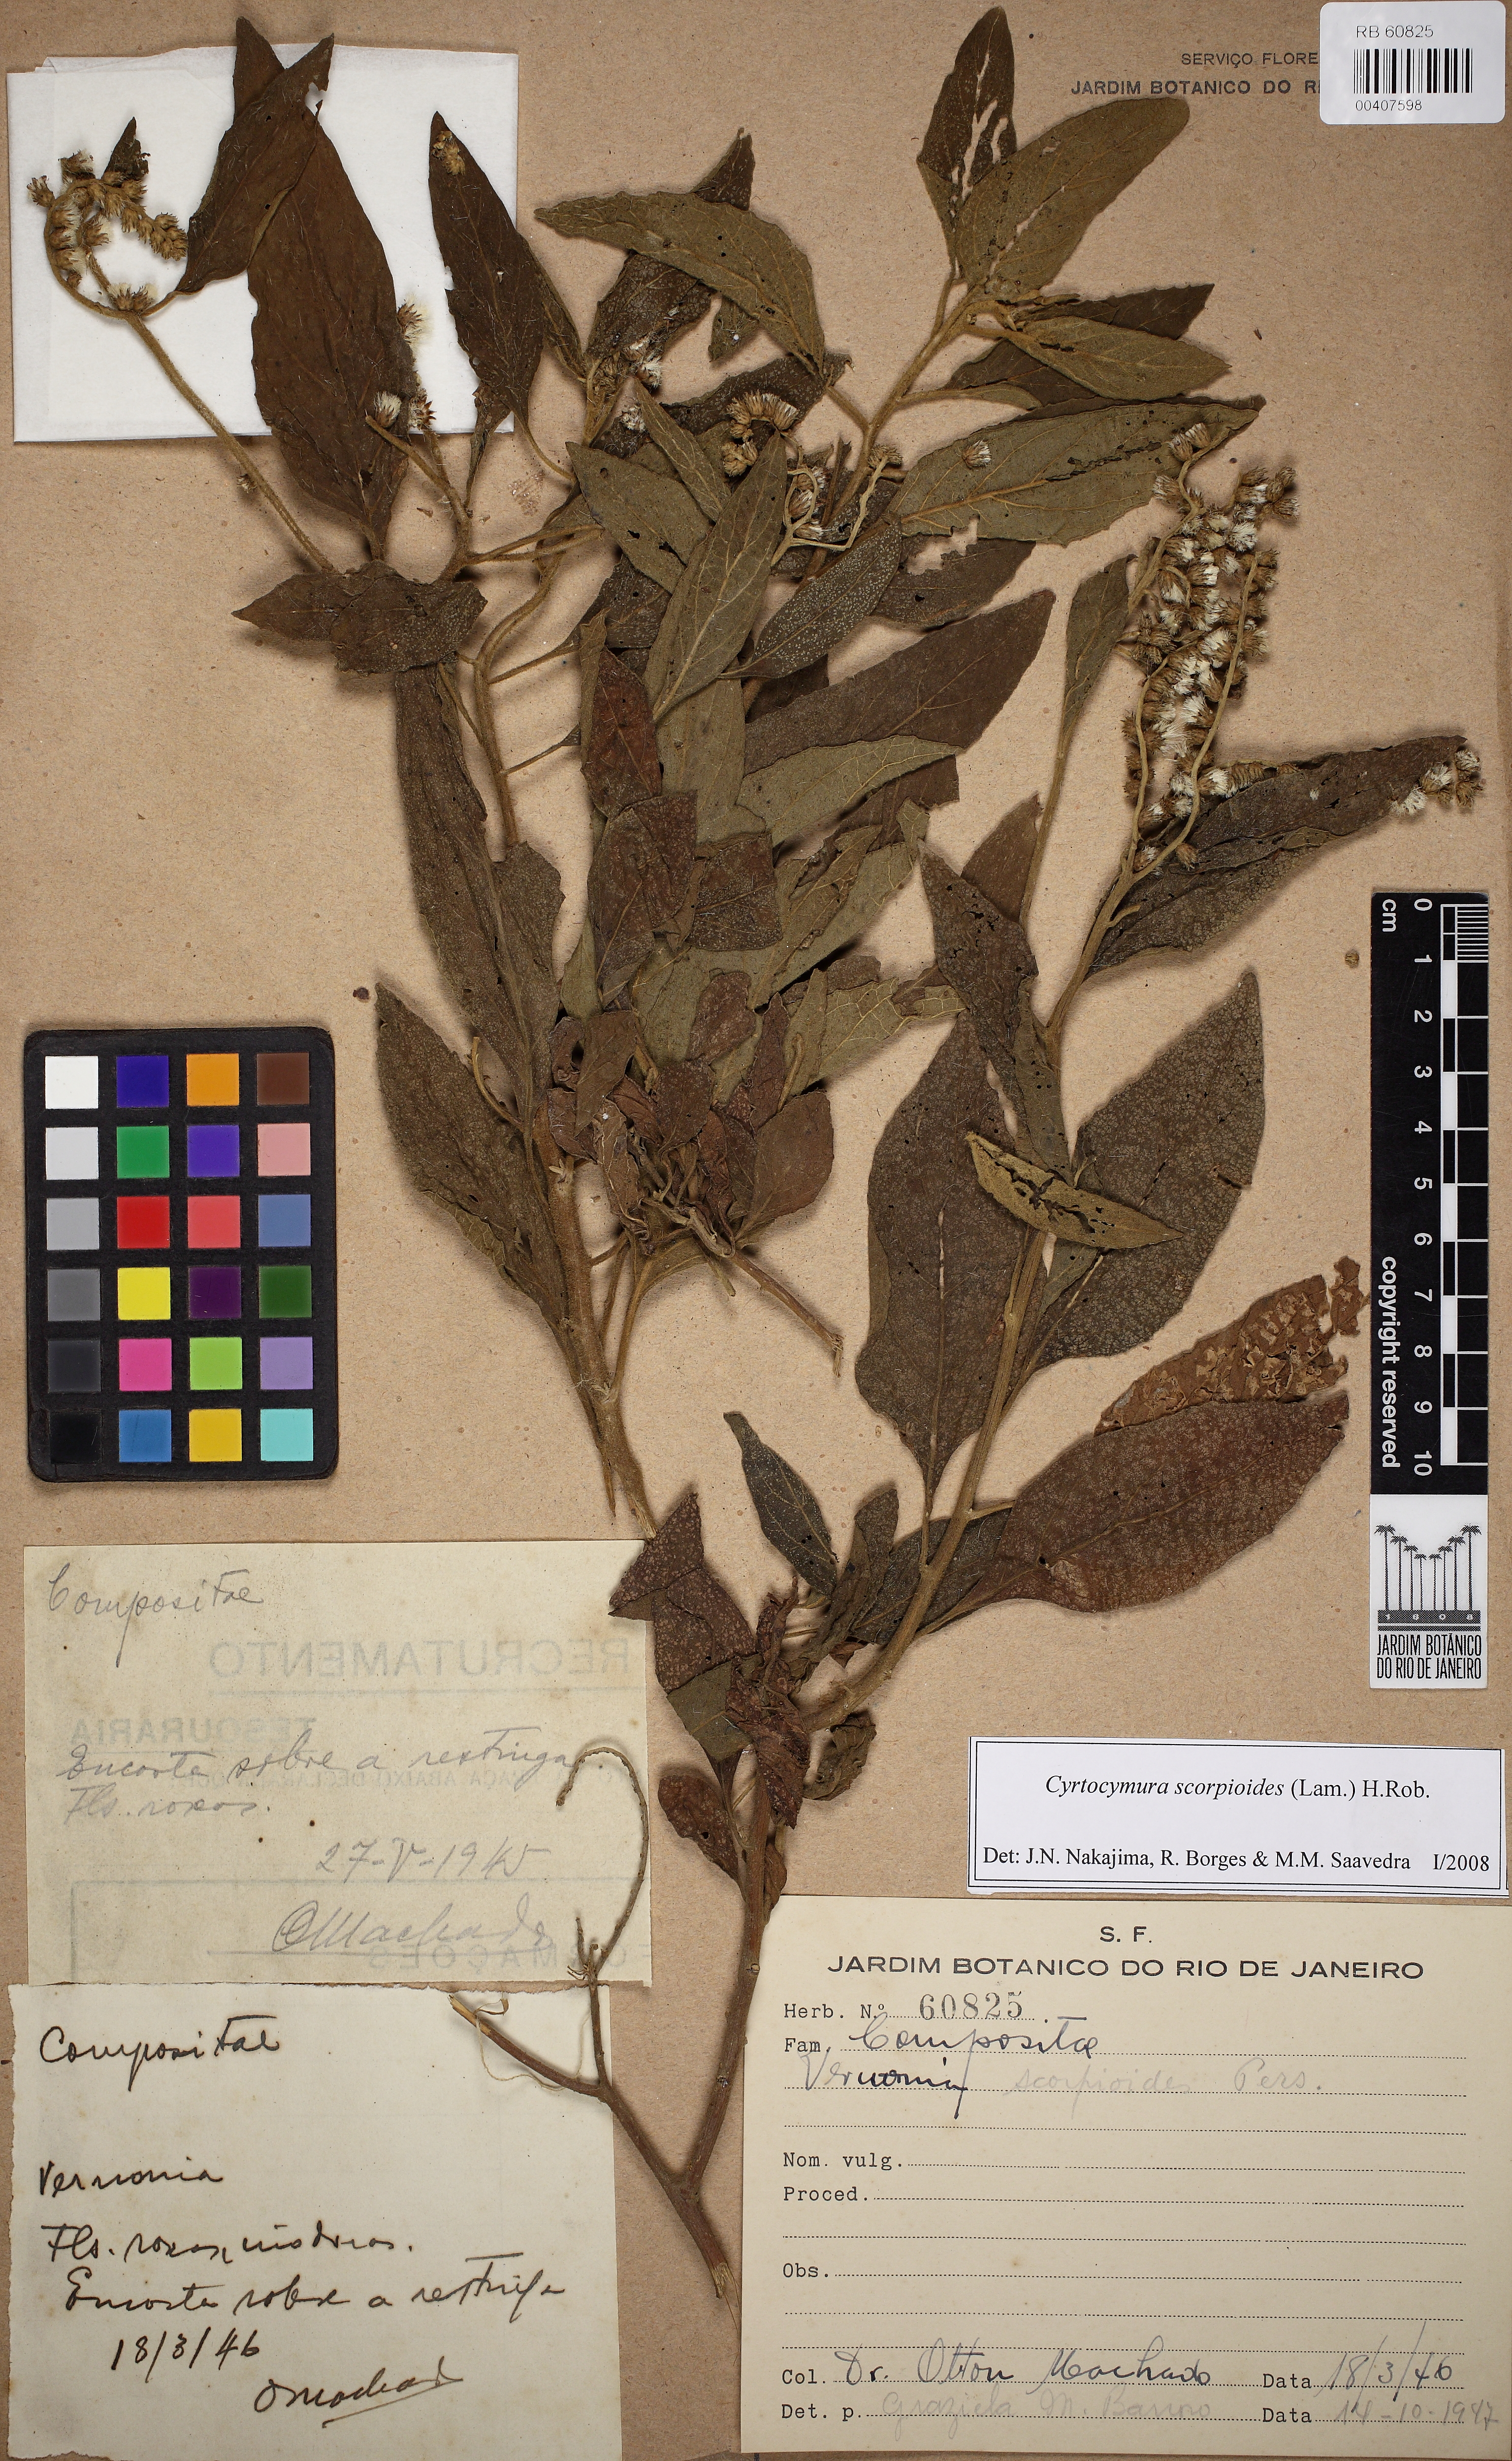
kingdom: Plantae
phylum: Tracheophyta
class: Magnoliopsida
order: Asterales
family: Asteraceae
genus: Cyrtocymura
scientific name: Cyrtocymura scorpioides
